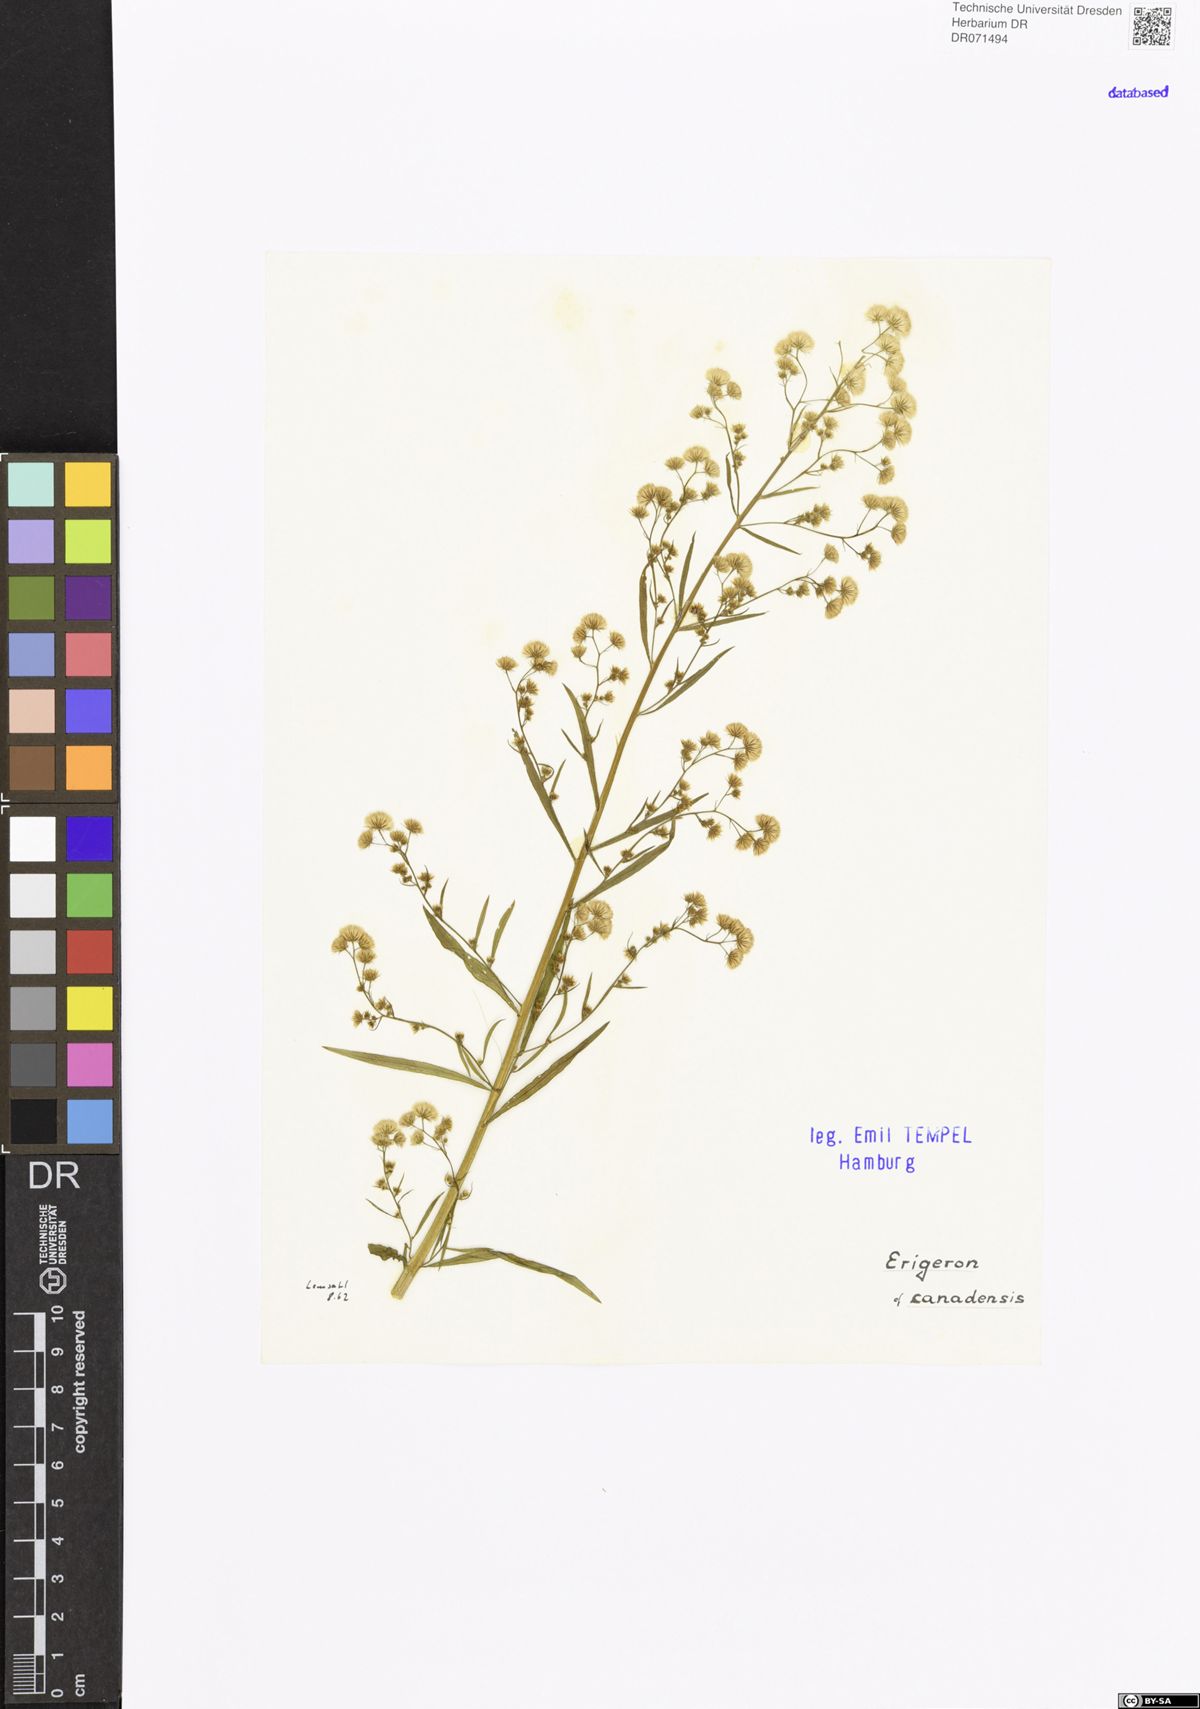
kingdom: Plantae
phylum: Tracheophyta
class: Magnoliopsida
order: Asterales
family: Asteraceae
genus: Erigeron
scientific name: Erigeron canadensis
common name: Canadian fleabane
